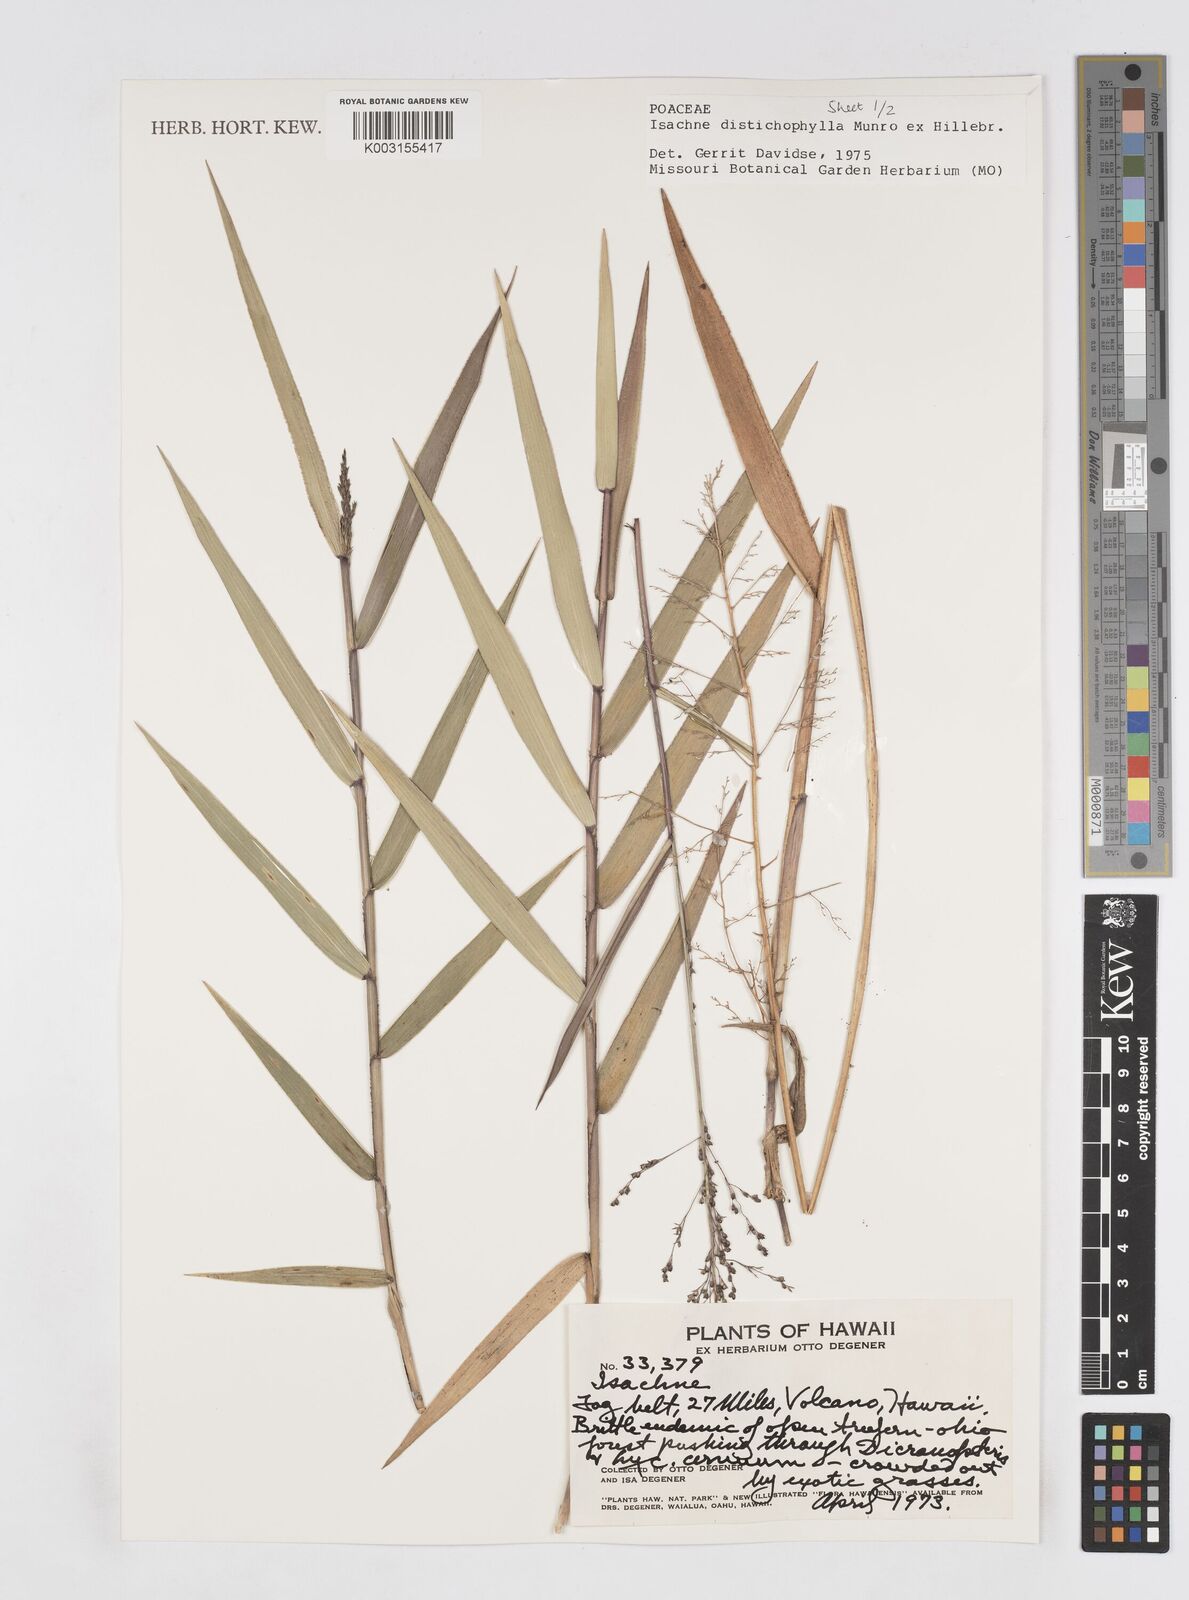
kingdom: Plantae
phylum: Tracheophyta
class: Liliopsida
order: Poales
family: Poaceae
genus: Isachne
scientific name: Isachne distichophylla
